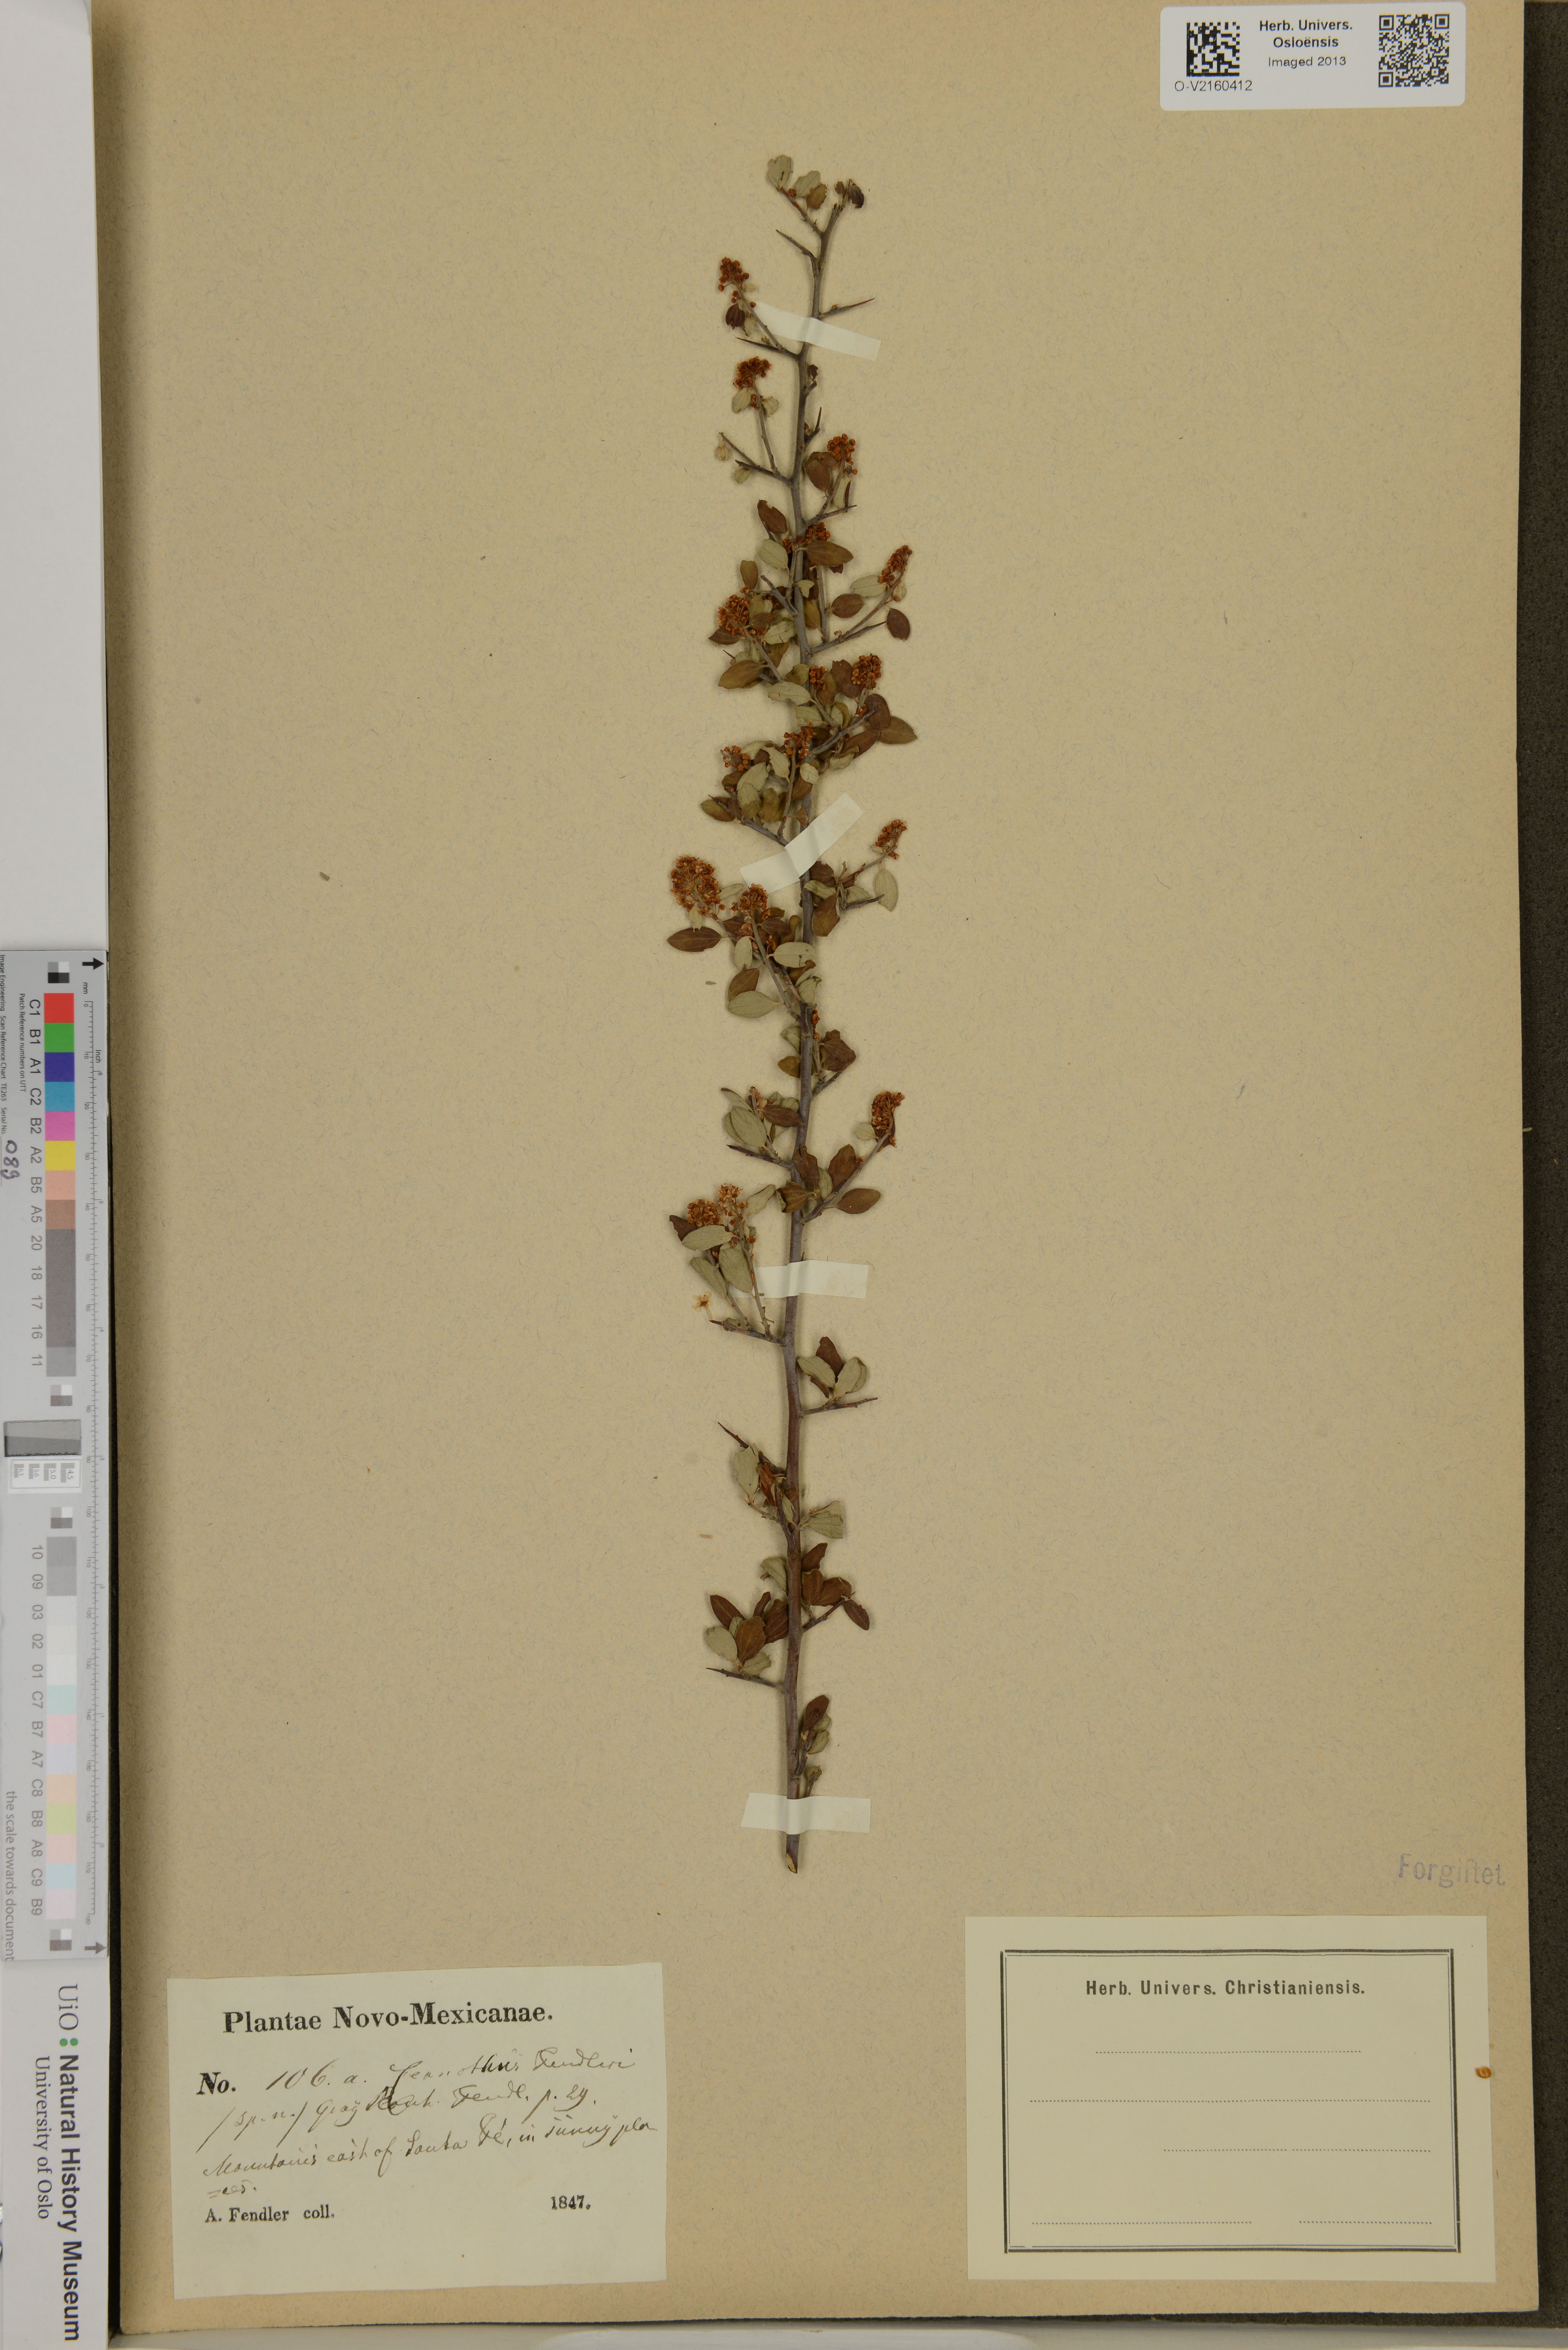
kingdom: Plantae
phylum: Tracheophyta
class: Magnoliopsida
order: Rosales
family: Rhamnaceae
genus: Ceanothus
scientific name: Ceanothus fendleri
